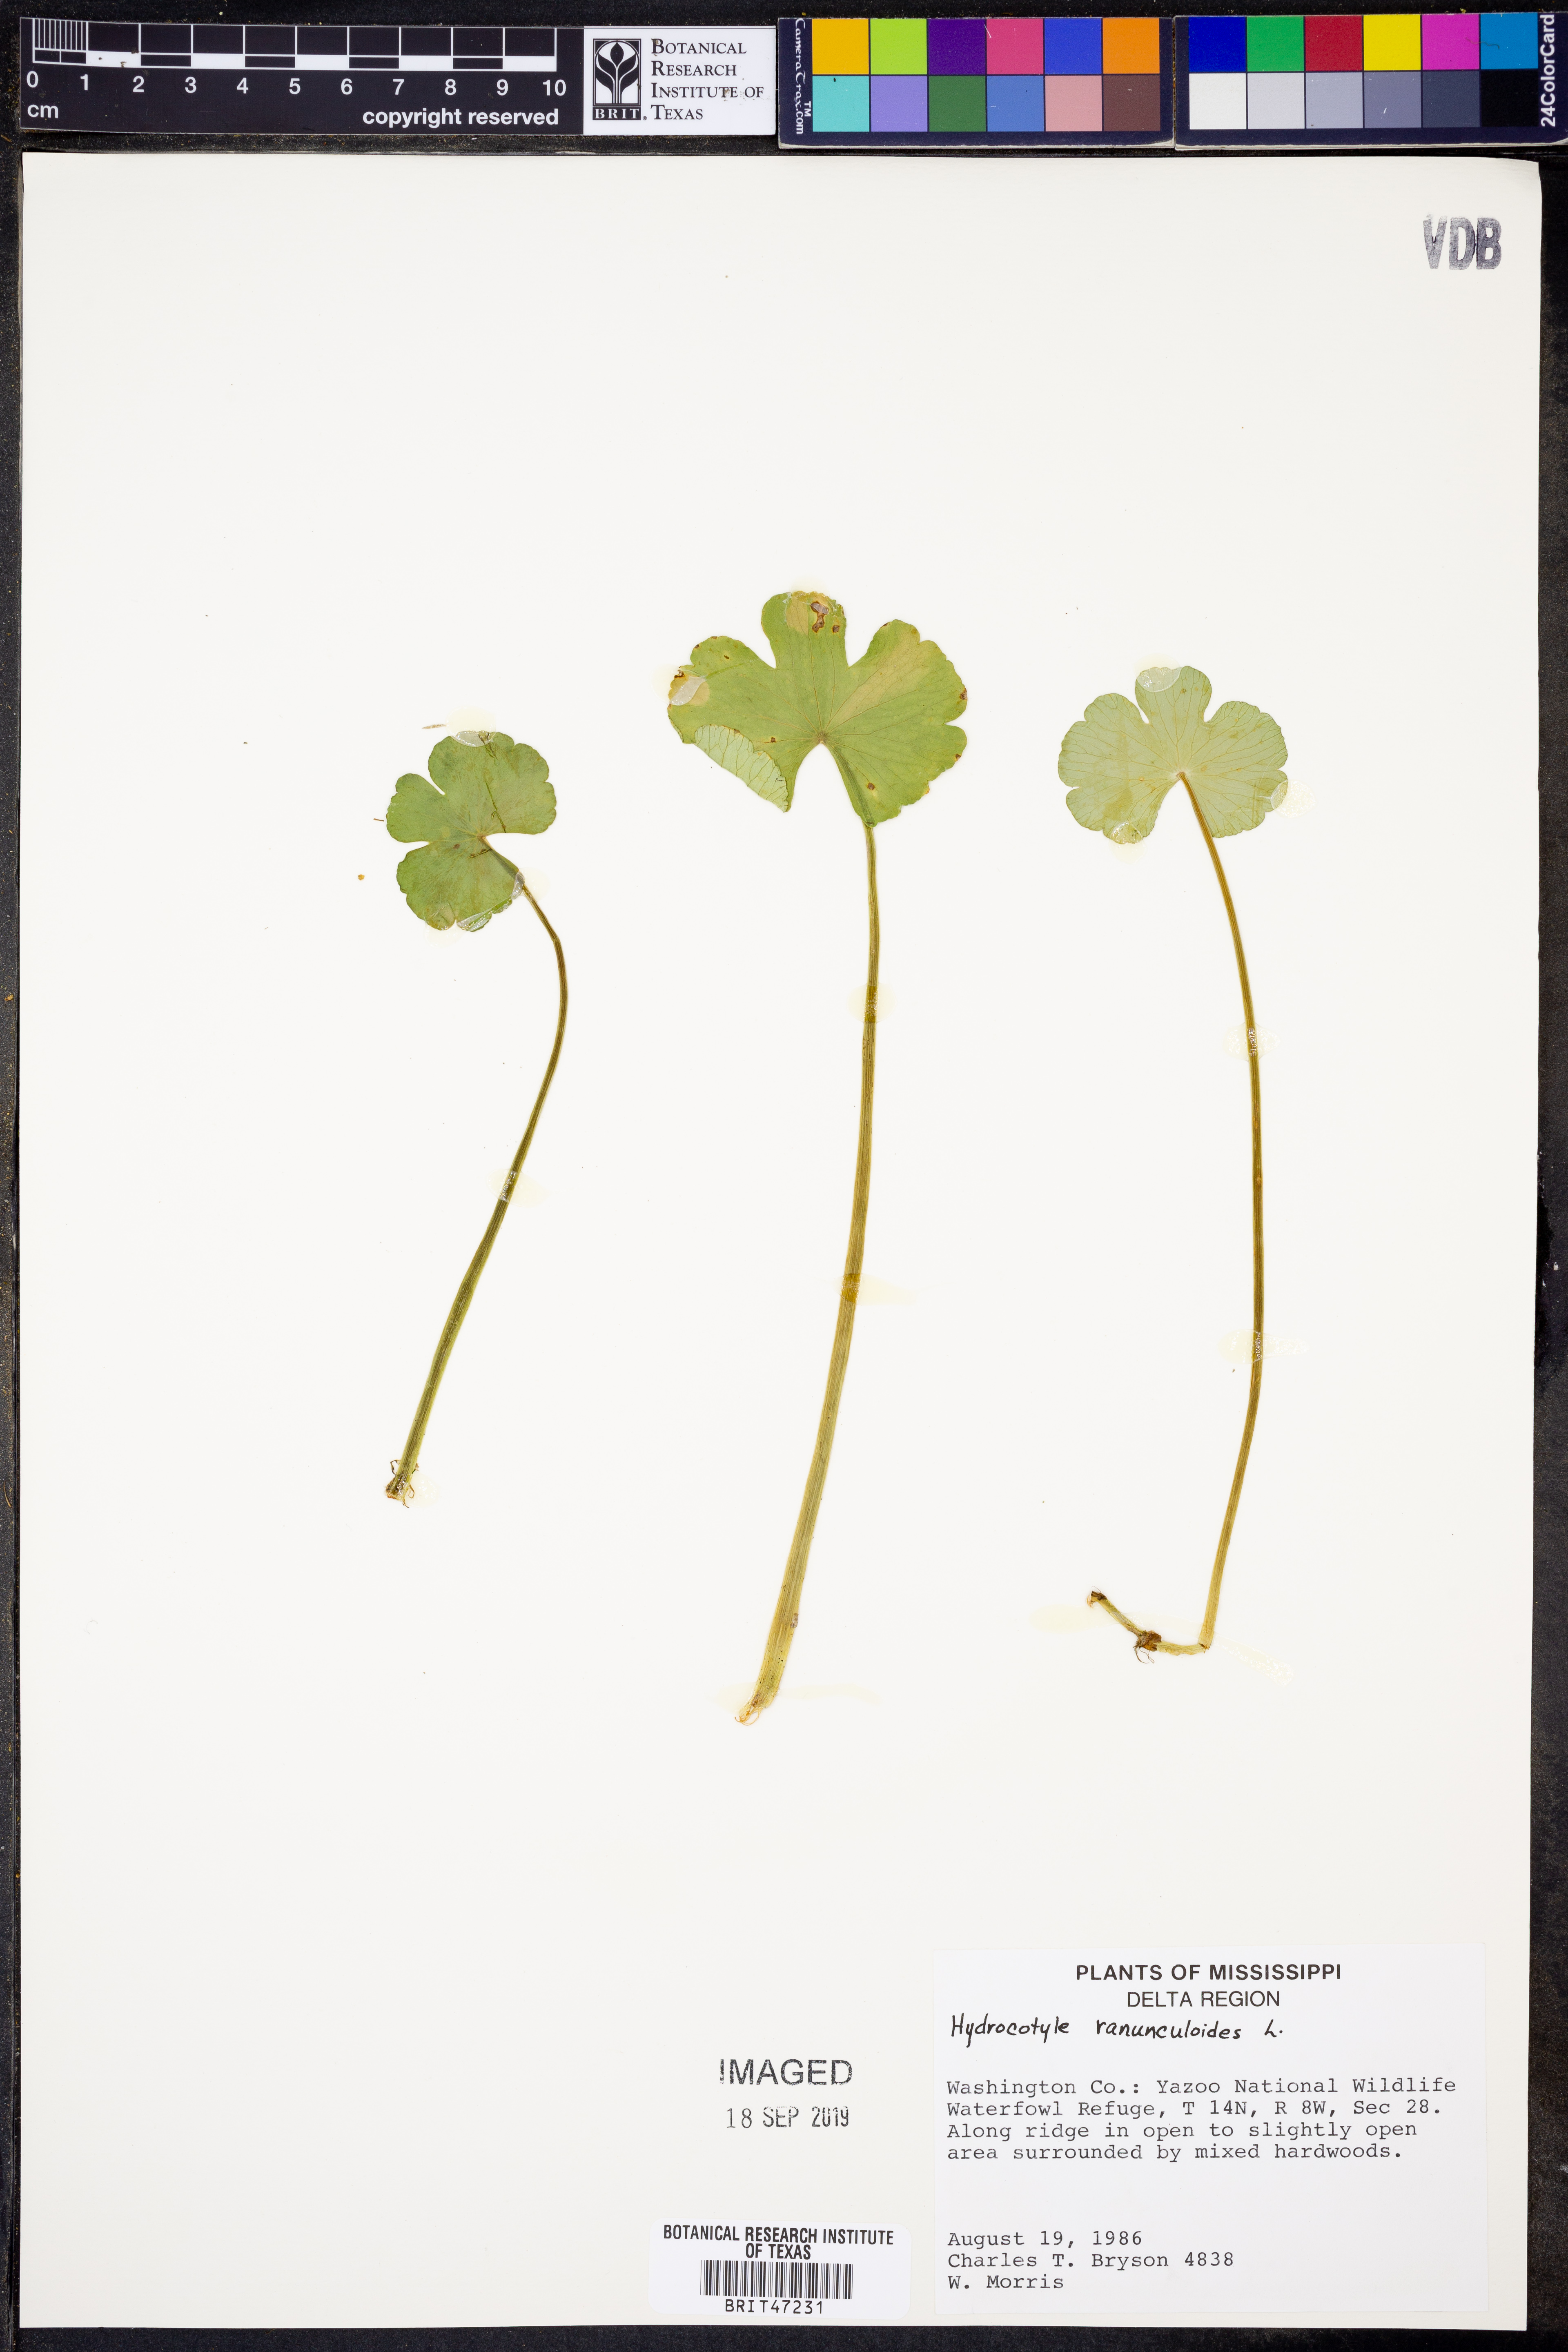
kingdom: Plantae
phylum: Tracheophyta
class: Magnoliopsida
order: Apiales
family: Araliaceae
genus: Hydrocotyle
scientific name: Hydrocotyle ranunculoides
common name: Floating pennywort
